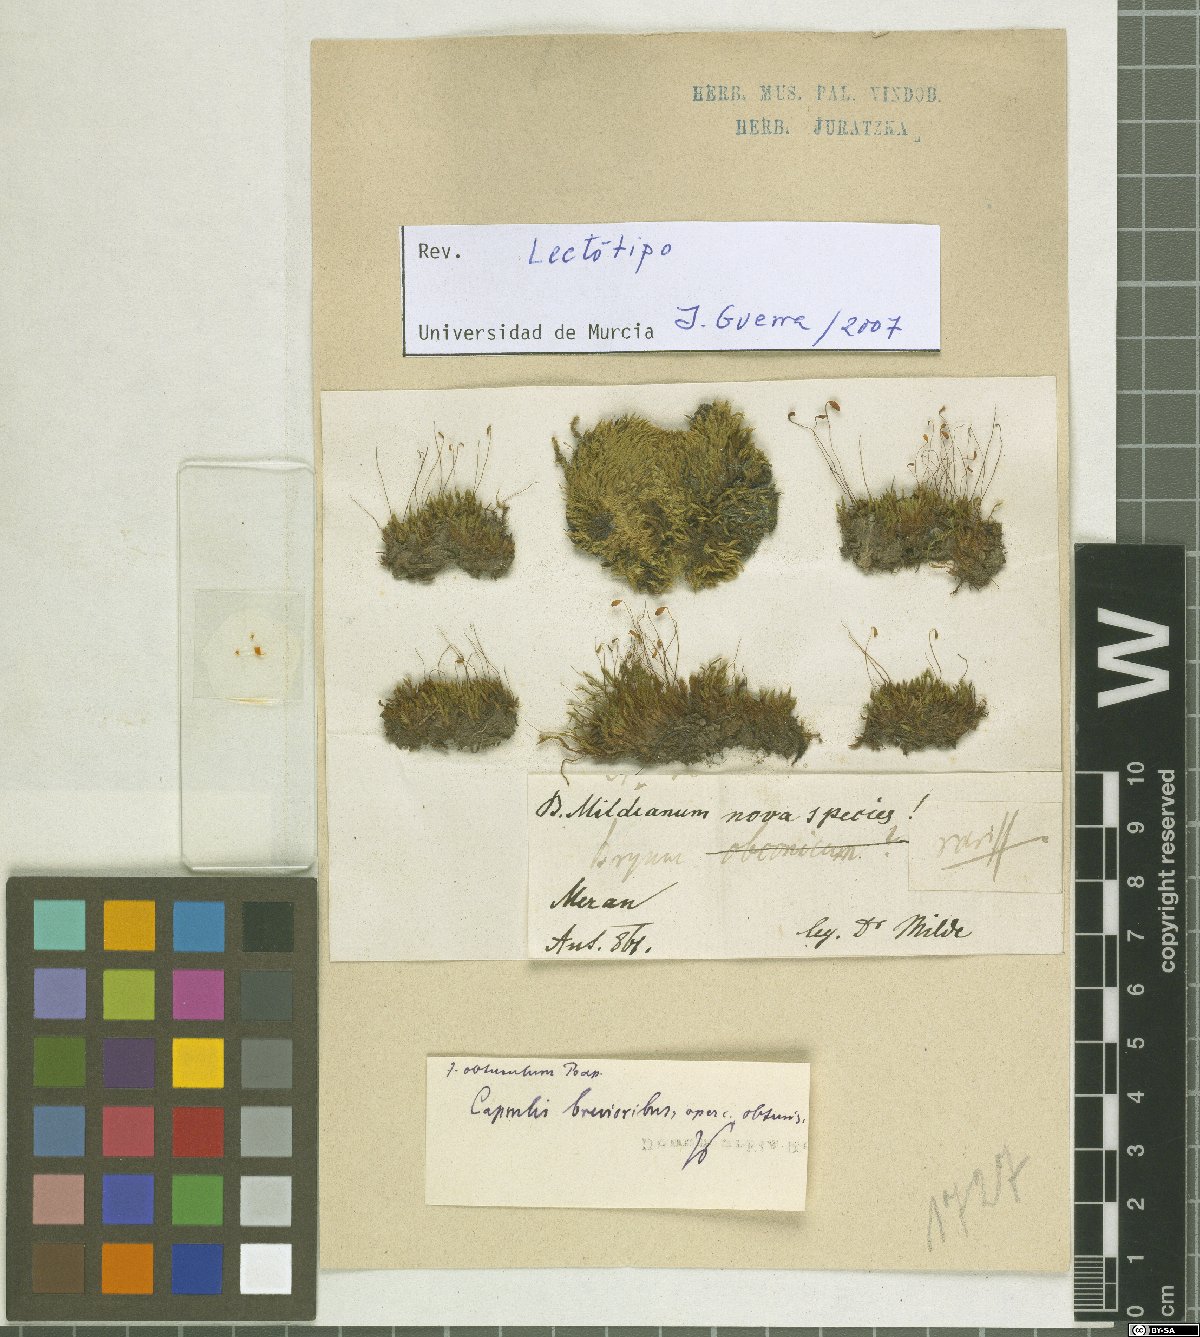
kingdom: Plantae
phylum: Bryophyta
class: Bryopsida
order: Bryales
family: Bryaceae
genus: Imbribryum
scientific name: Imbribryum mildeanum
